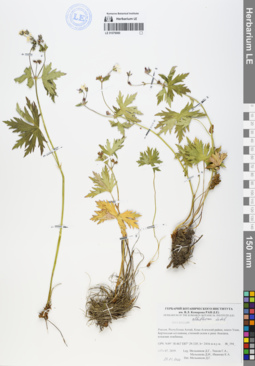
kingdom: Plantae
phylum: Tracheophyta
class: Magnoliopsida
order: Geraniales
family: Geraniaceae
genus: Geranium
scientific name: Geranium albiflorum
